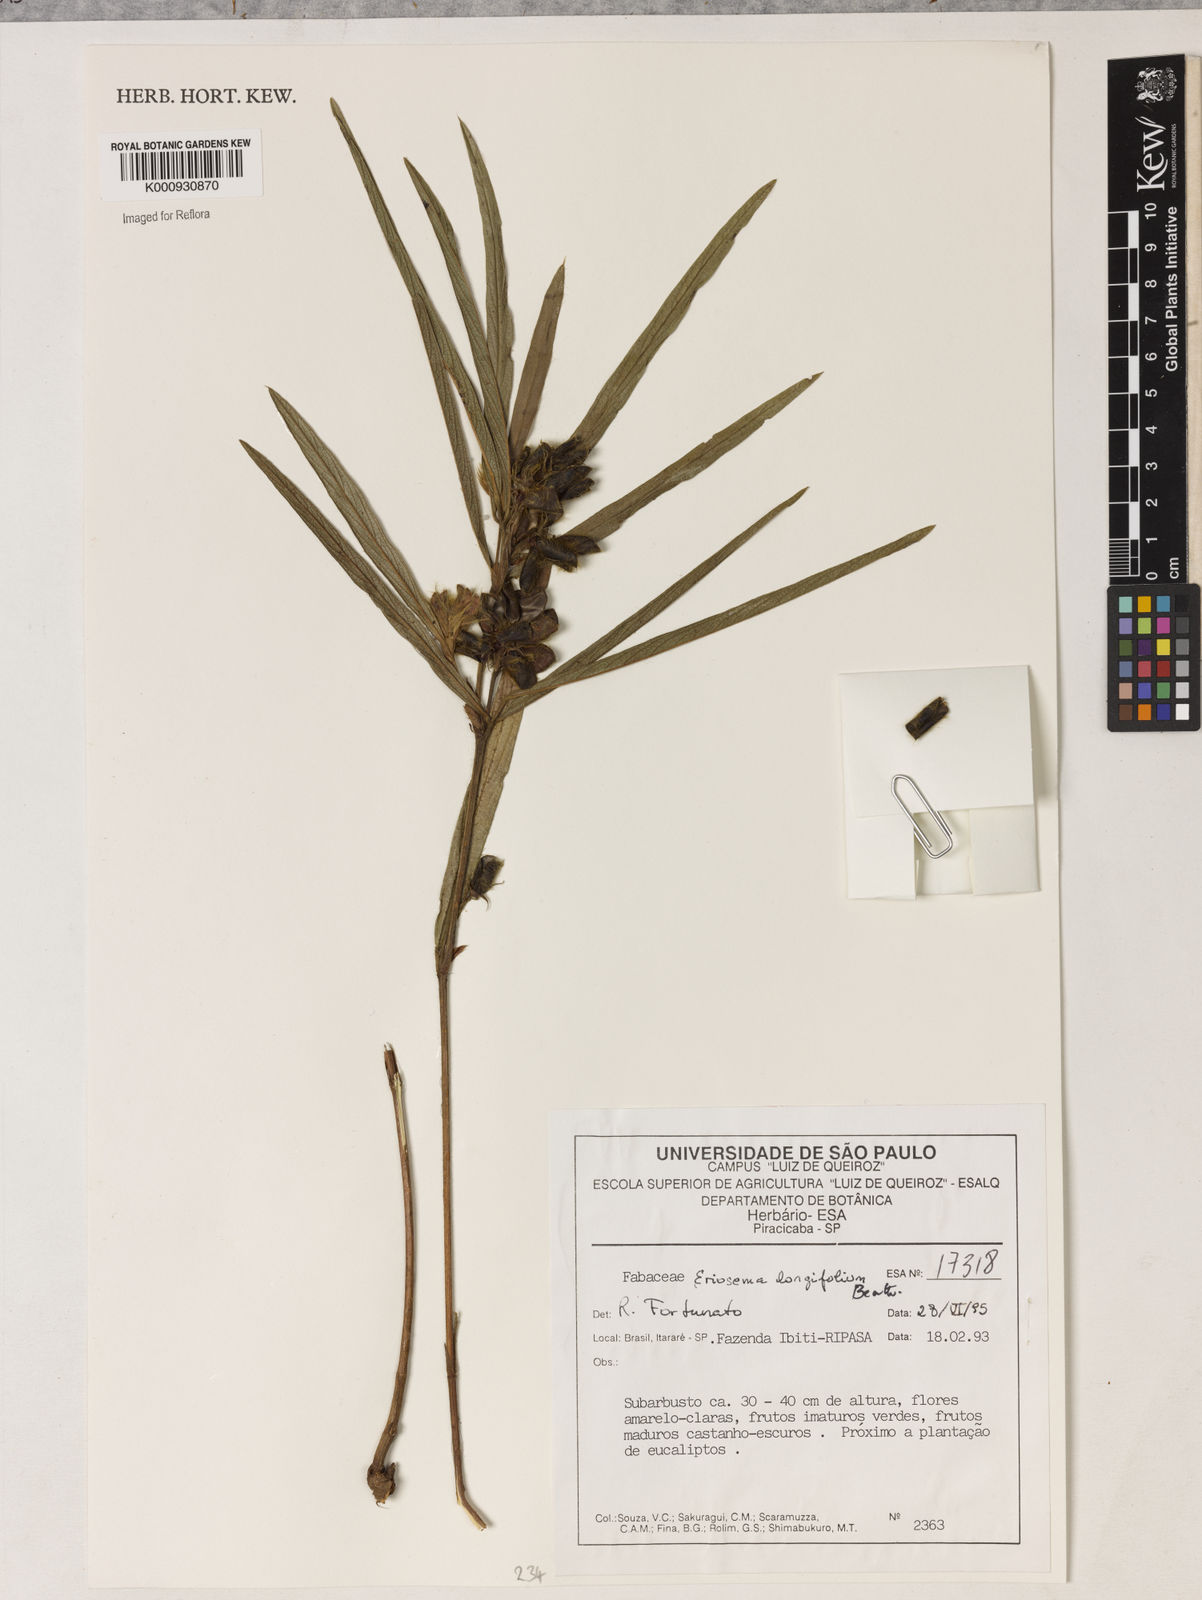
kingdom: Plantae
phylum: Tracheophyta
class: Magnoliopsida
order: Fabales
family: Fabaceae
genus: Eriosema
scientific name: Eriosema longifolium
